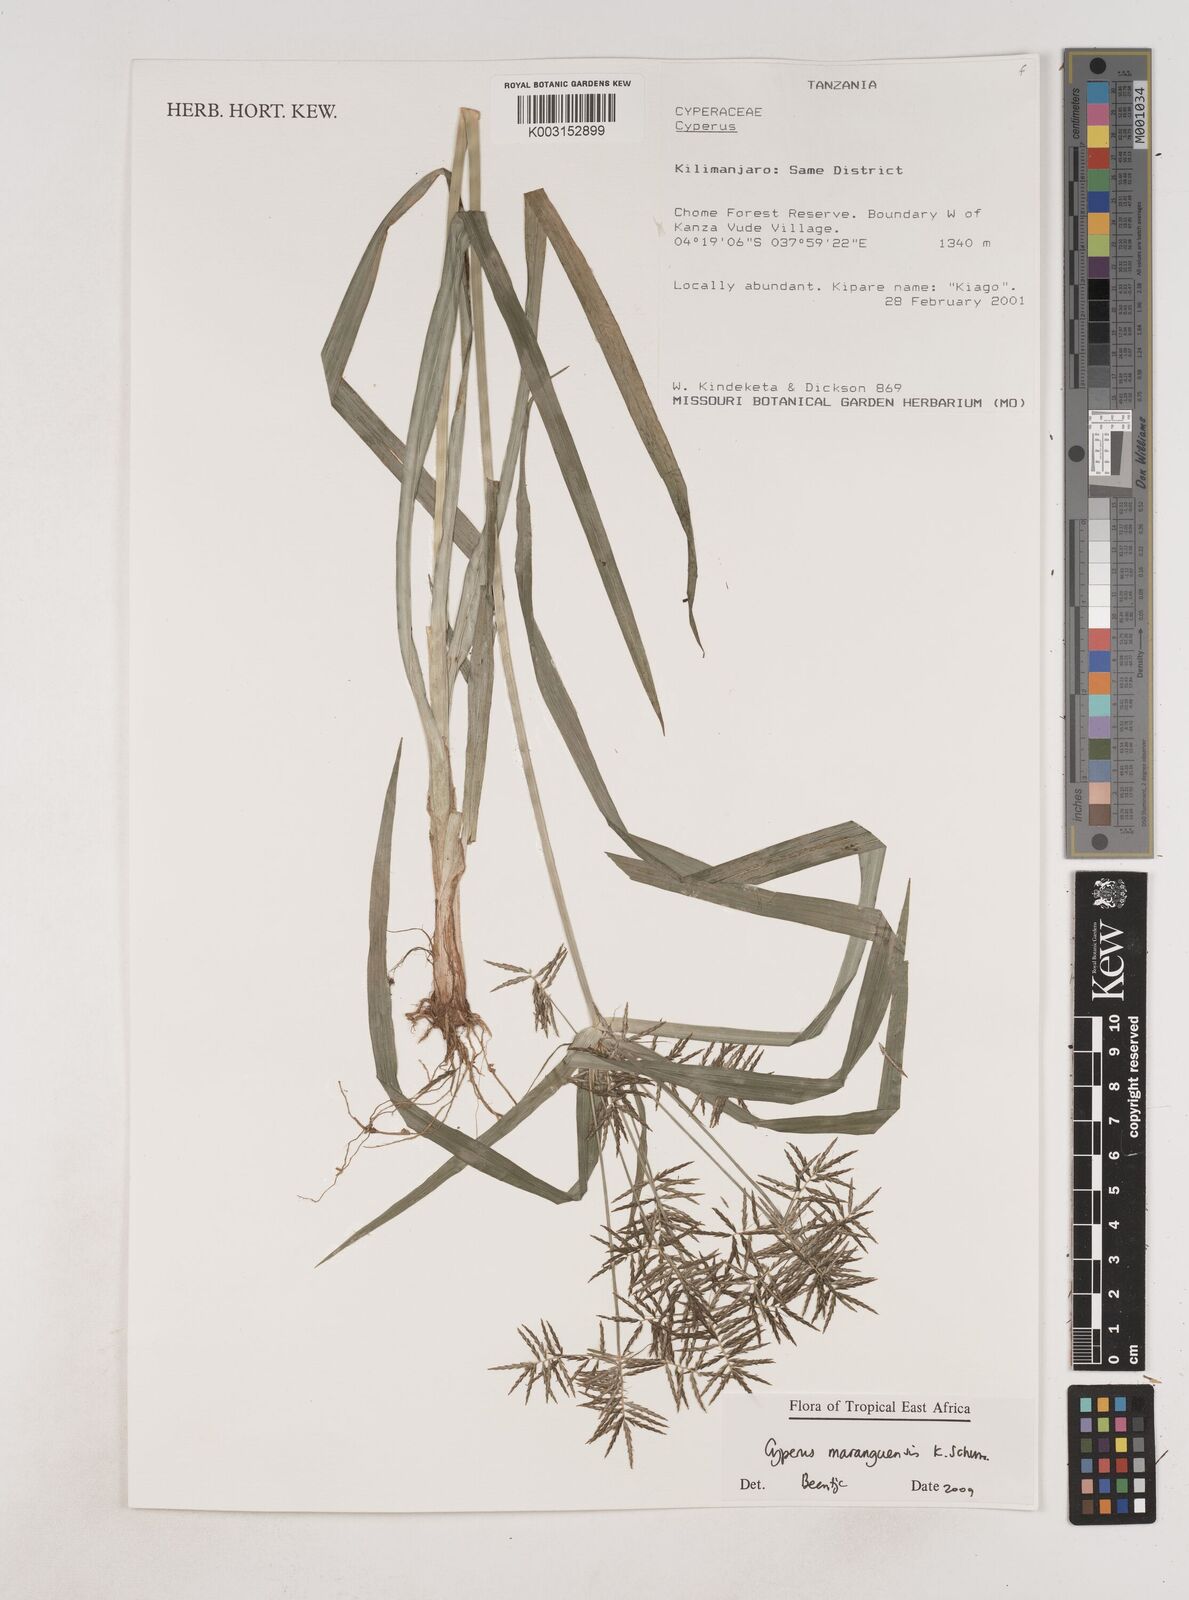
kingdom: Plantae
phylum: Tracheophyta
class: Liliopsida
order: Poales
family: Cyperaceae
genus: Cyperus
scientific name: Cyperus maranguensis
